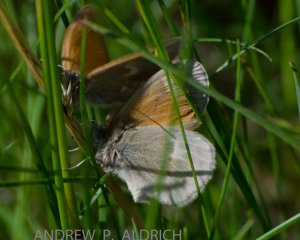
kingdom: Animalia
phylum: Arthropoda
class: Insecta
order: Lepidoptera
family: Nymphalidae
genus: Coenonympha
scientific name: Coenonympha tullia
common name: Large Heath
